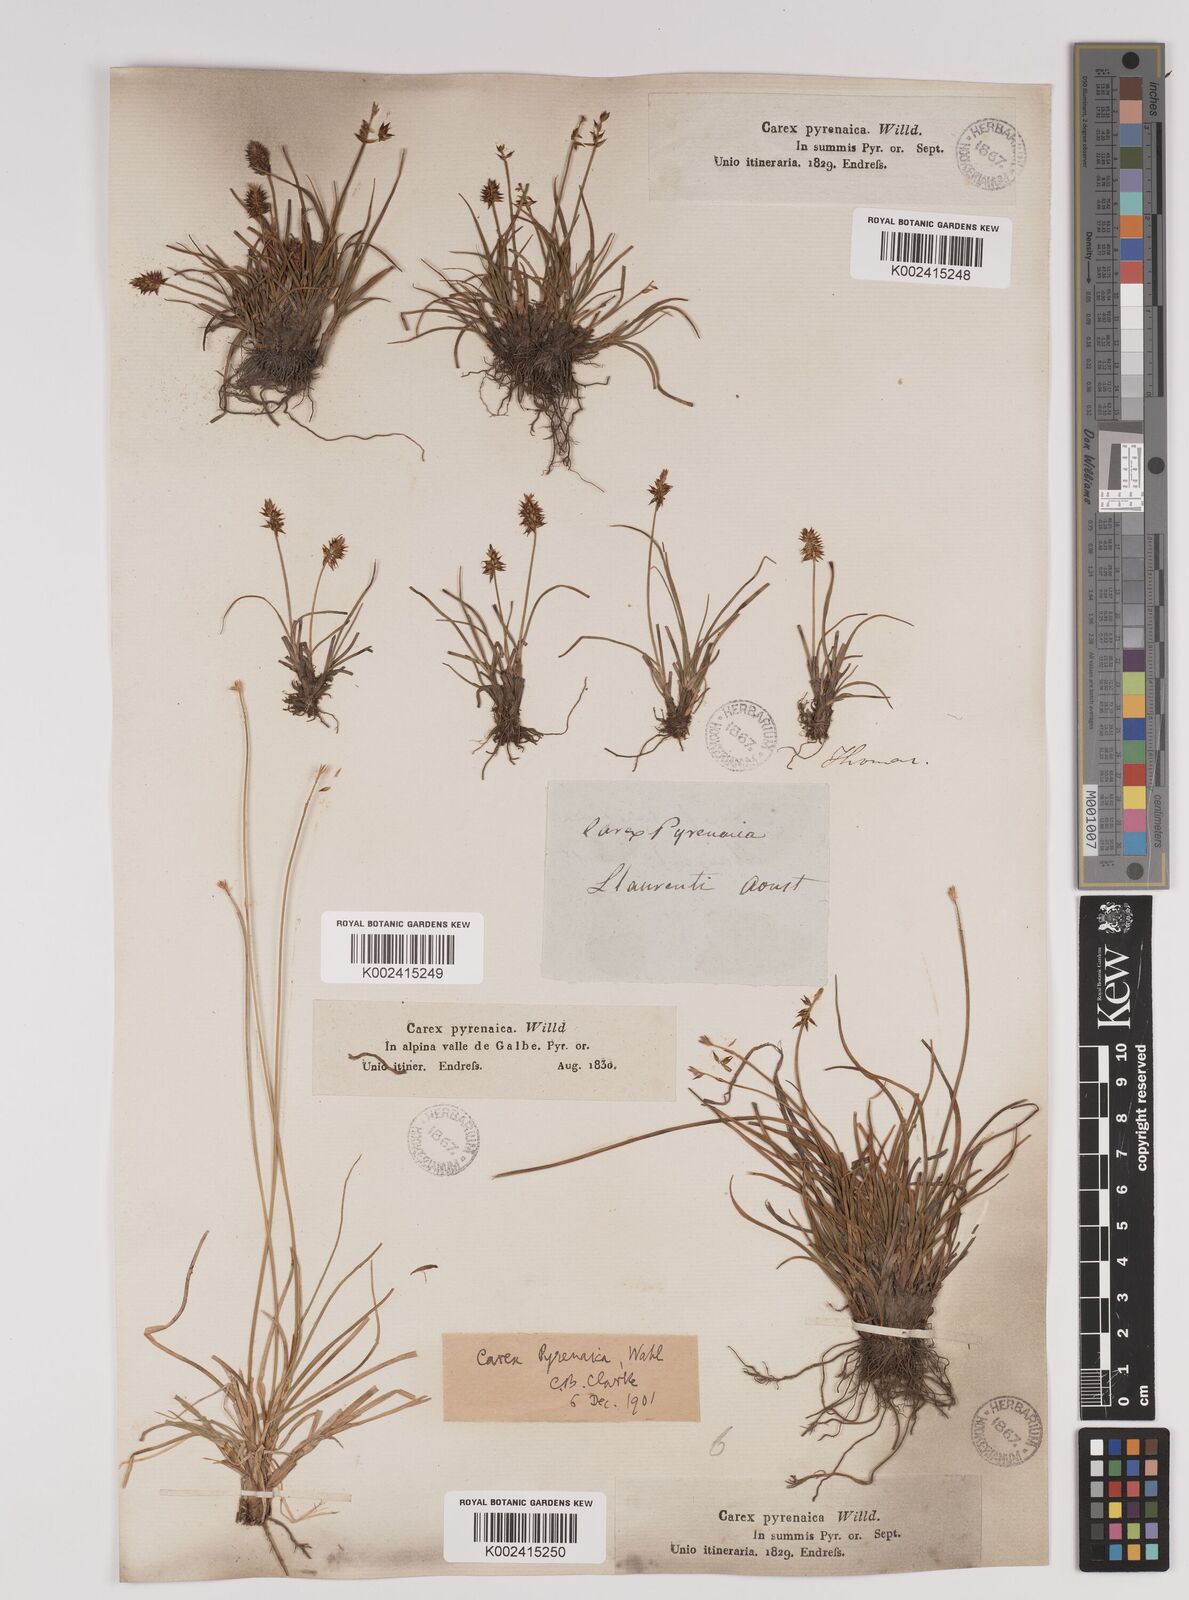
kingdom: Plantae
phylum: Tracheophyta
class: Liliopsida
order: Poales
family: Cyperaceae
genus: Carex
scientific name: Carex acicularis
